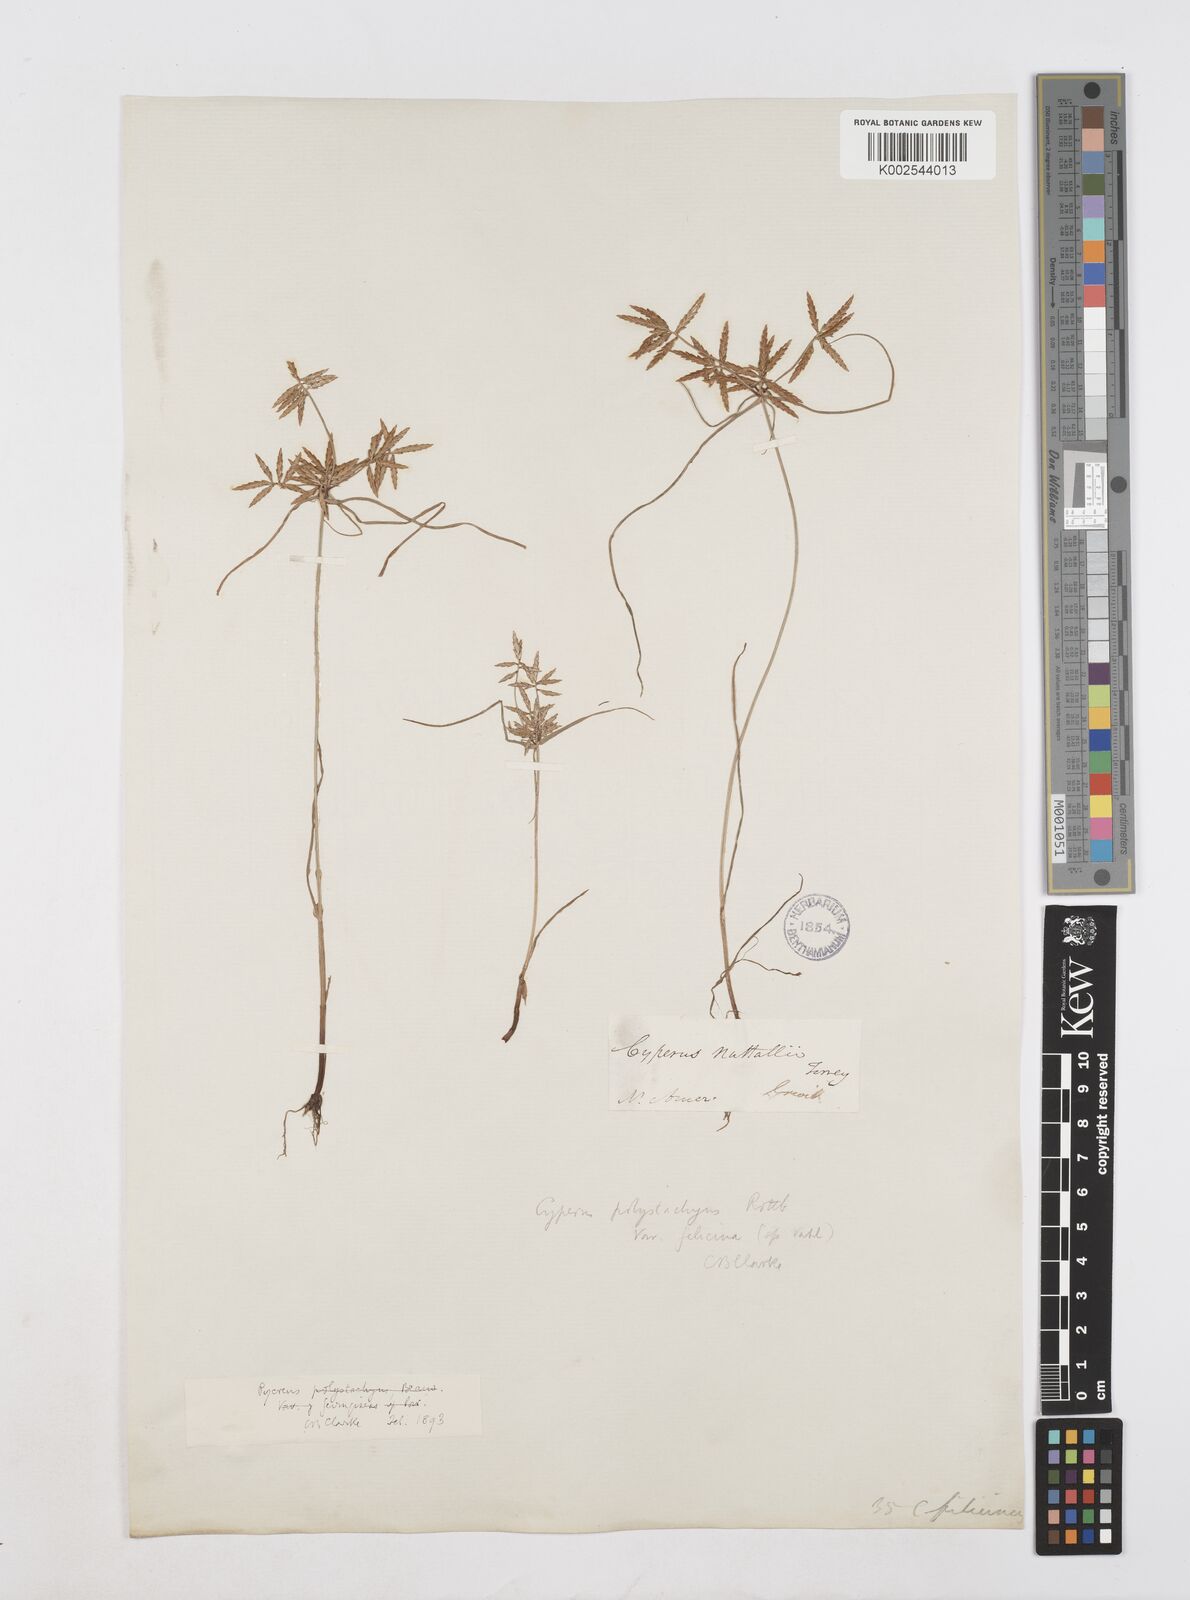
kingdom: Plantae
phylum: Tracheophyta
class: Liliopsida
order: Poales
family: Cyperaceae
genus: Cyperus
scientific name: Cyperus filicinus
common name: Fern flatsedge
